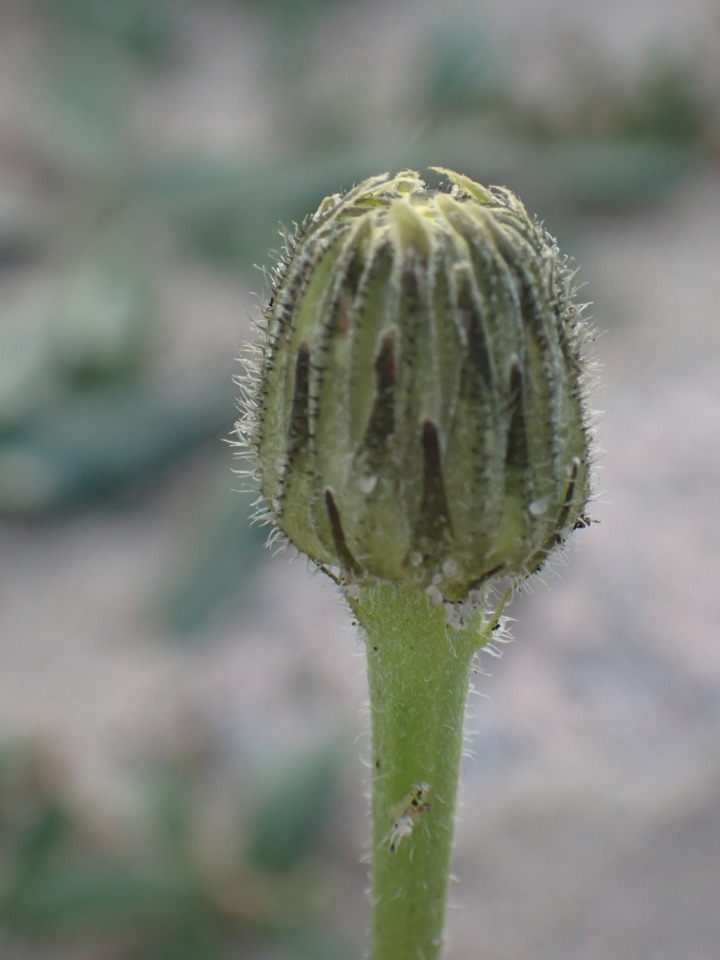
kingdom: Plantae
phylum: Tracheophyta
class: Magnoliopsida
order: Asterales
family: Asteraceae
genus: Trommsdorffia
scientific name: Trommsdorffia maculata
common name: Plettet kongepen
